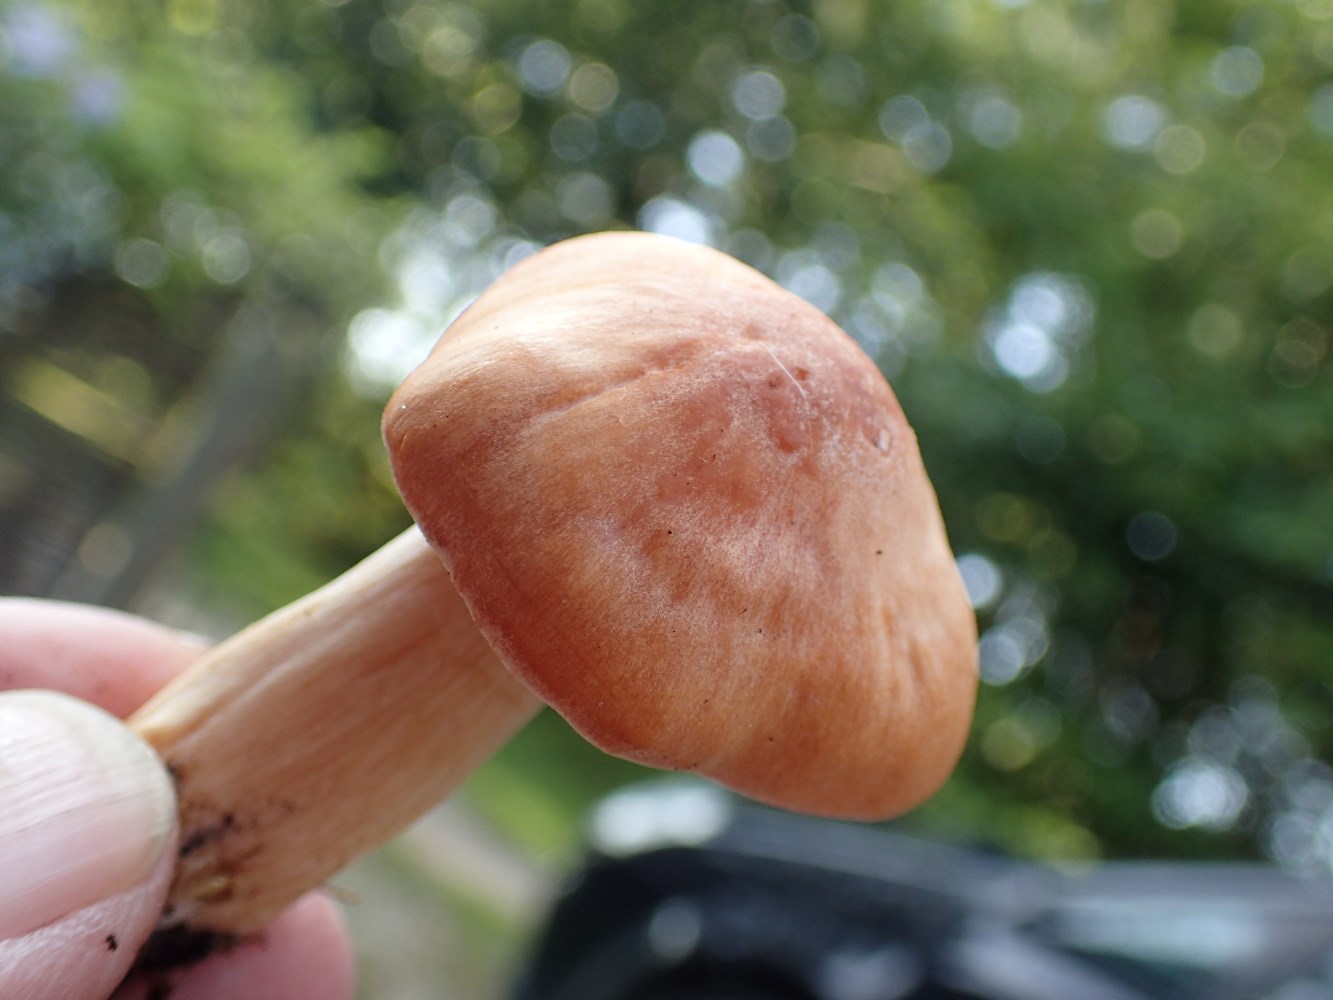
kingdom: Fungi
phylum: Basidiomycota
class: Agaricomycetes
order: Agaricales
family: Hygrophoraceae
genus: Cuphophyllus
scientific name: Cuphophyllus pratensis
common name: eng-vokshat
